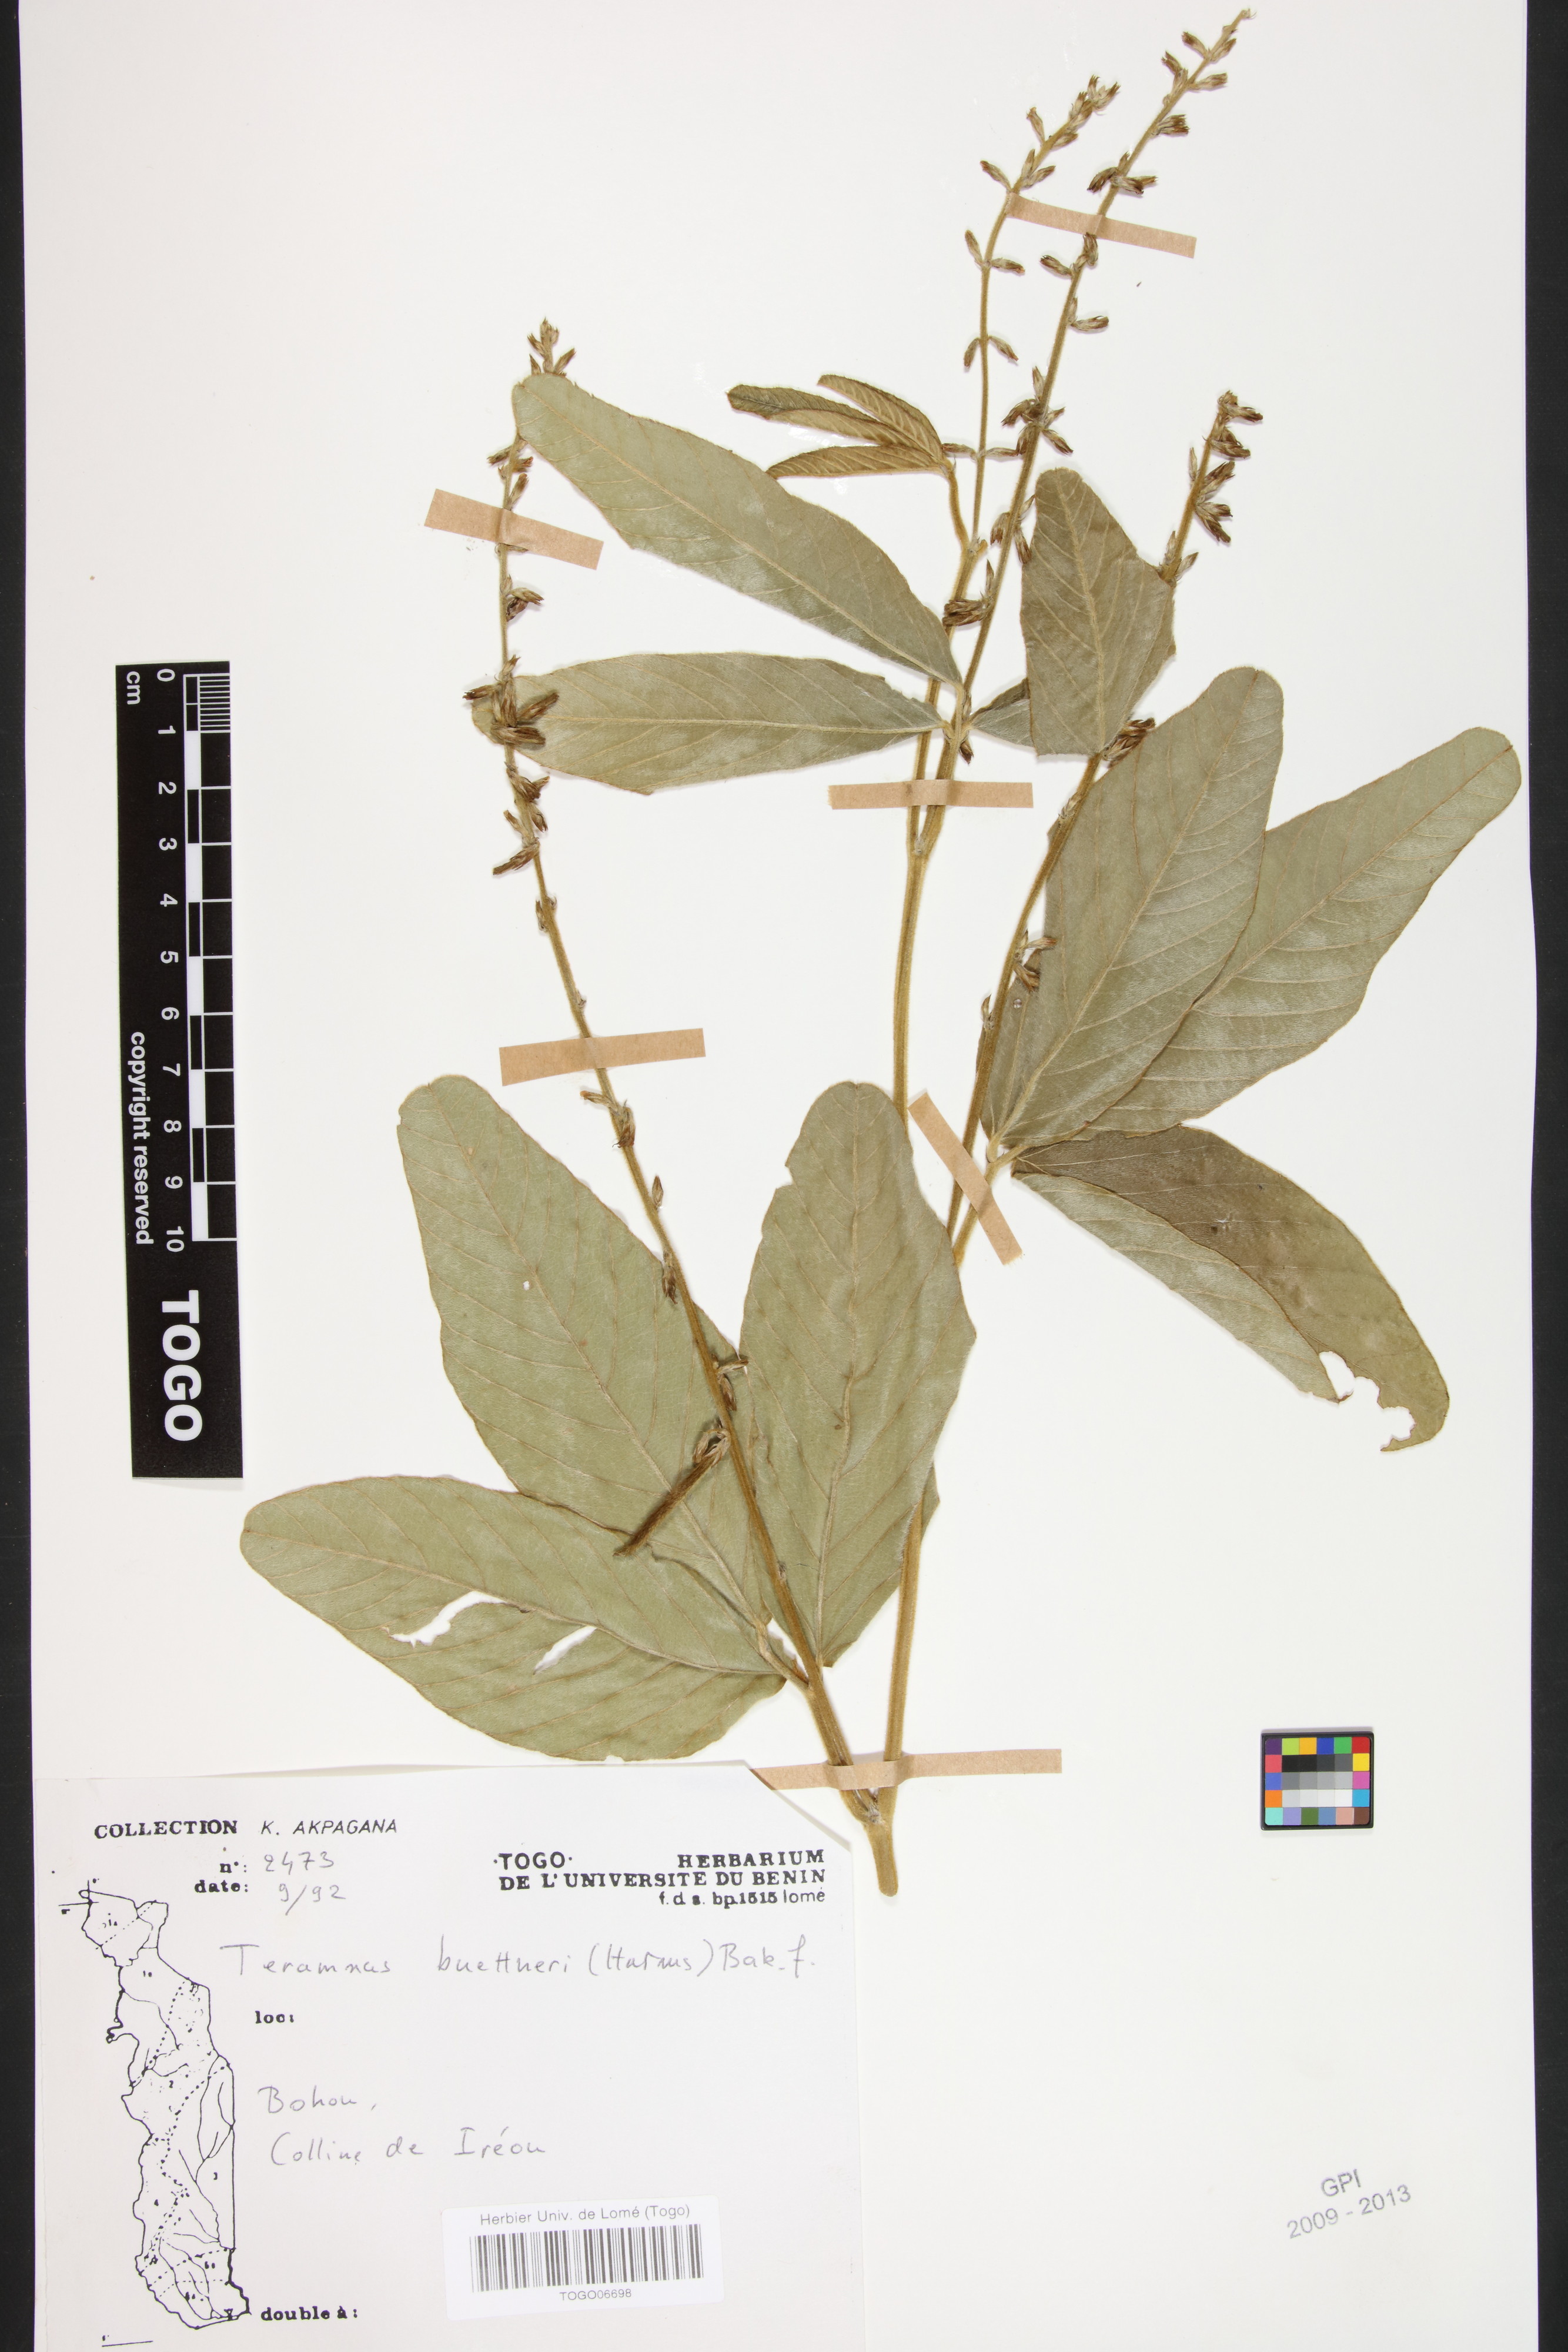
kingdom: Plantae
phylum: Tracheophyta
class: Magnoliopsida
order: Fabales
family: Fabaceae
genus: Teramnus
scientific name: Teramnus buettneri
